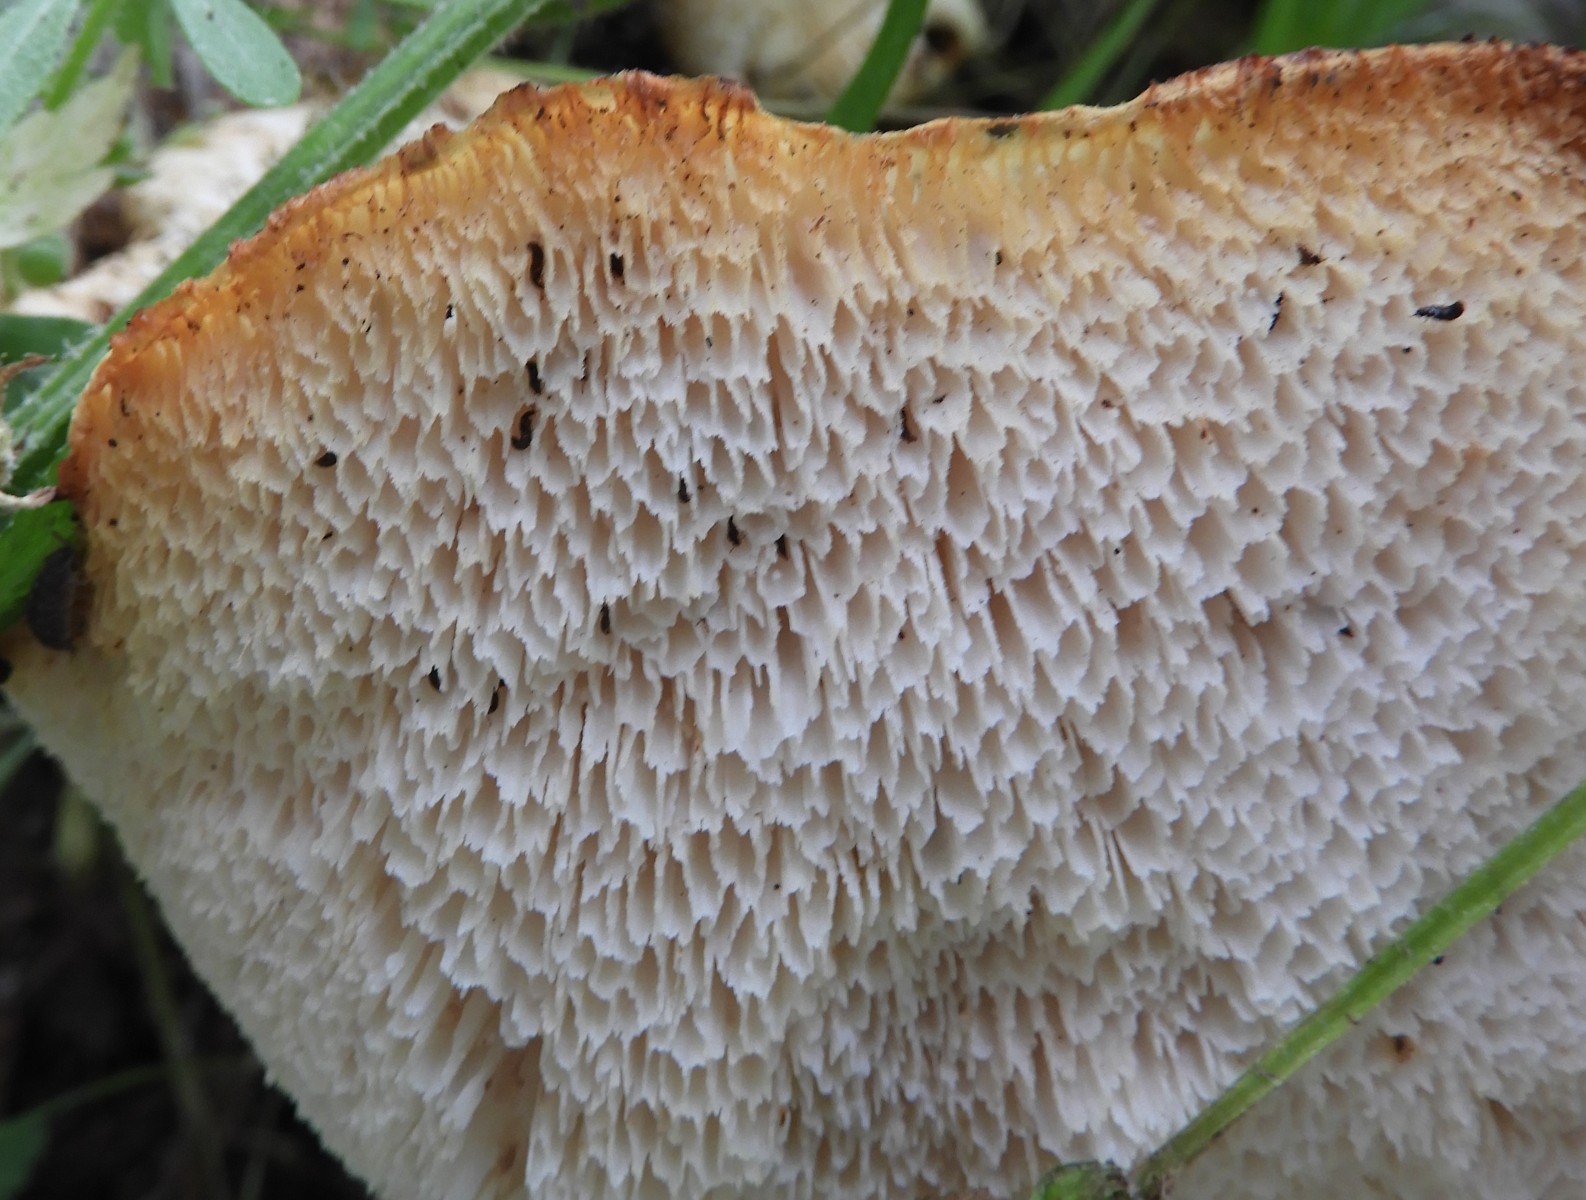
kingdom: Fungi
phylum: Basidiomycota
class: Agaricomycetes
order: Polyporales
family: Polyporaceae
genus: Cerioporus
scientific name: Cerioporus squamosus
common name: skællet stilkporesvamp
